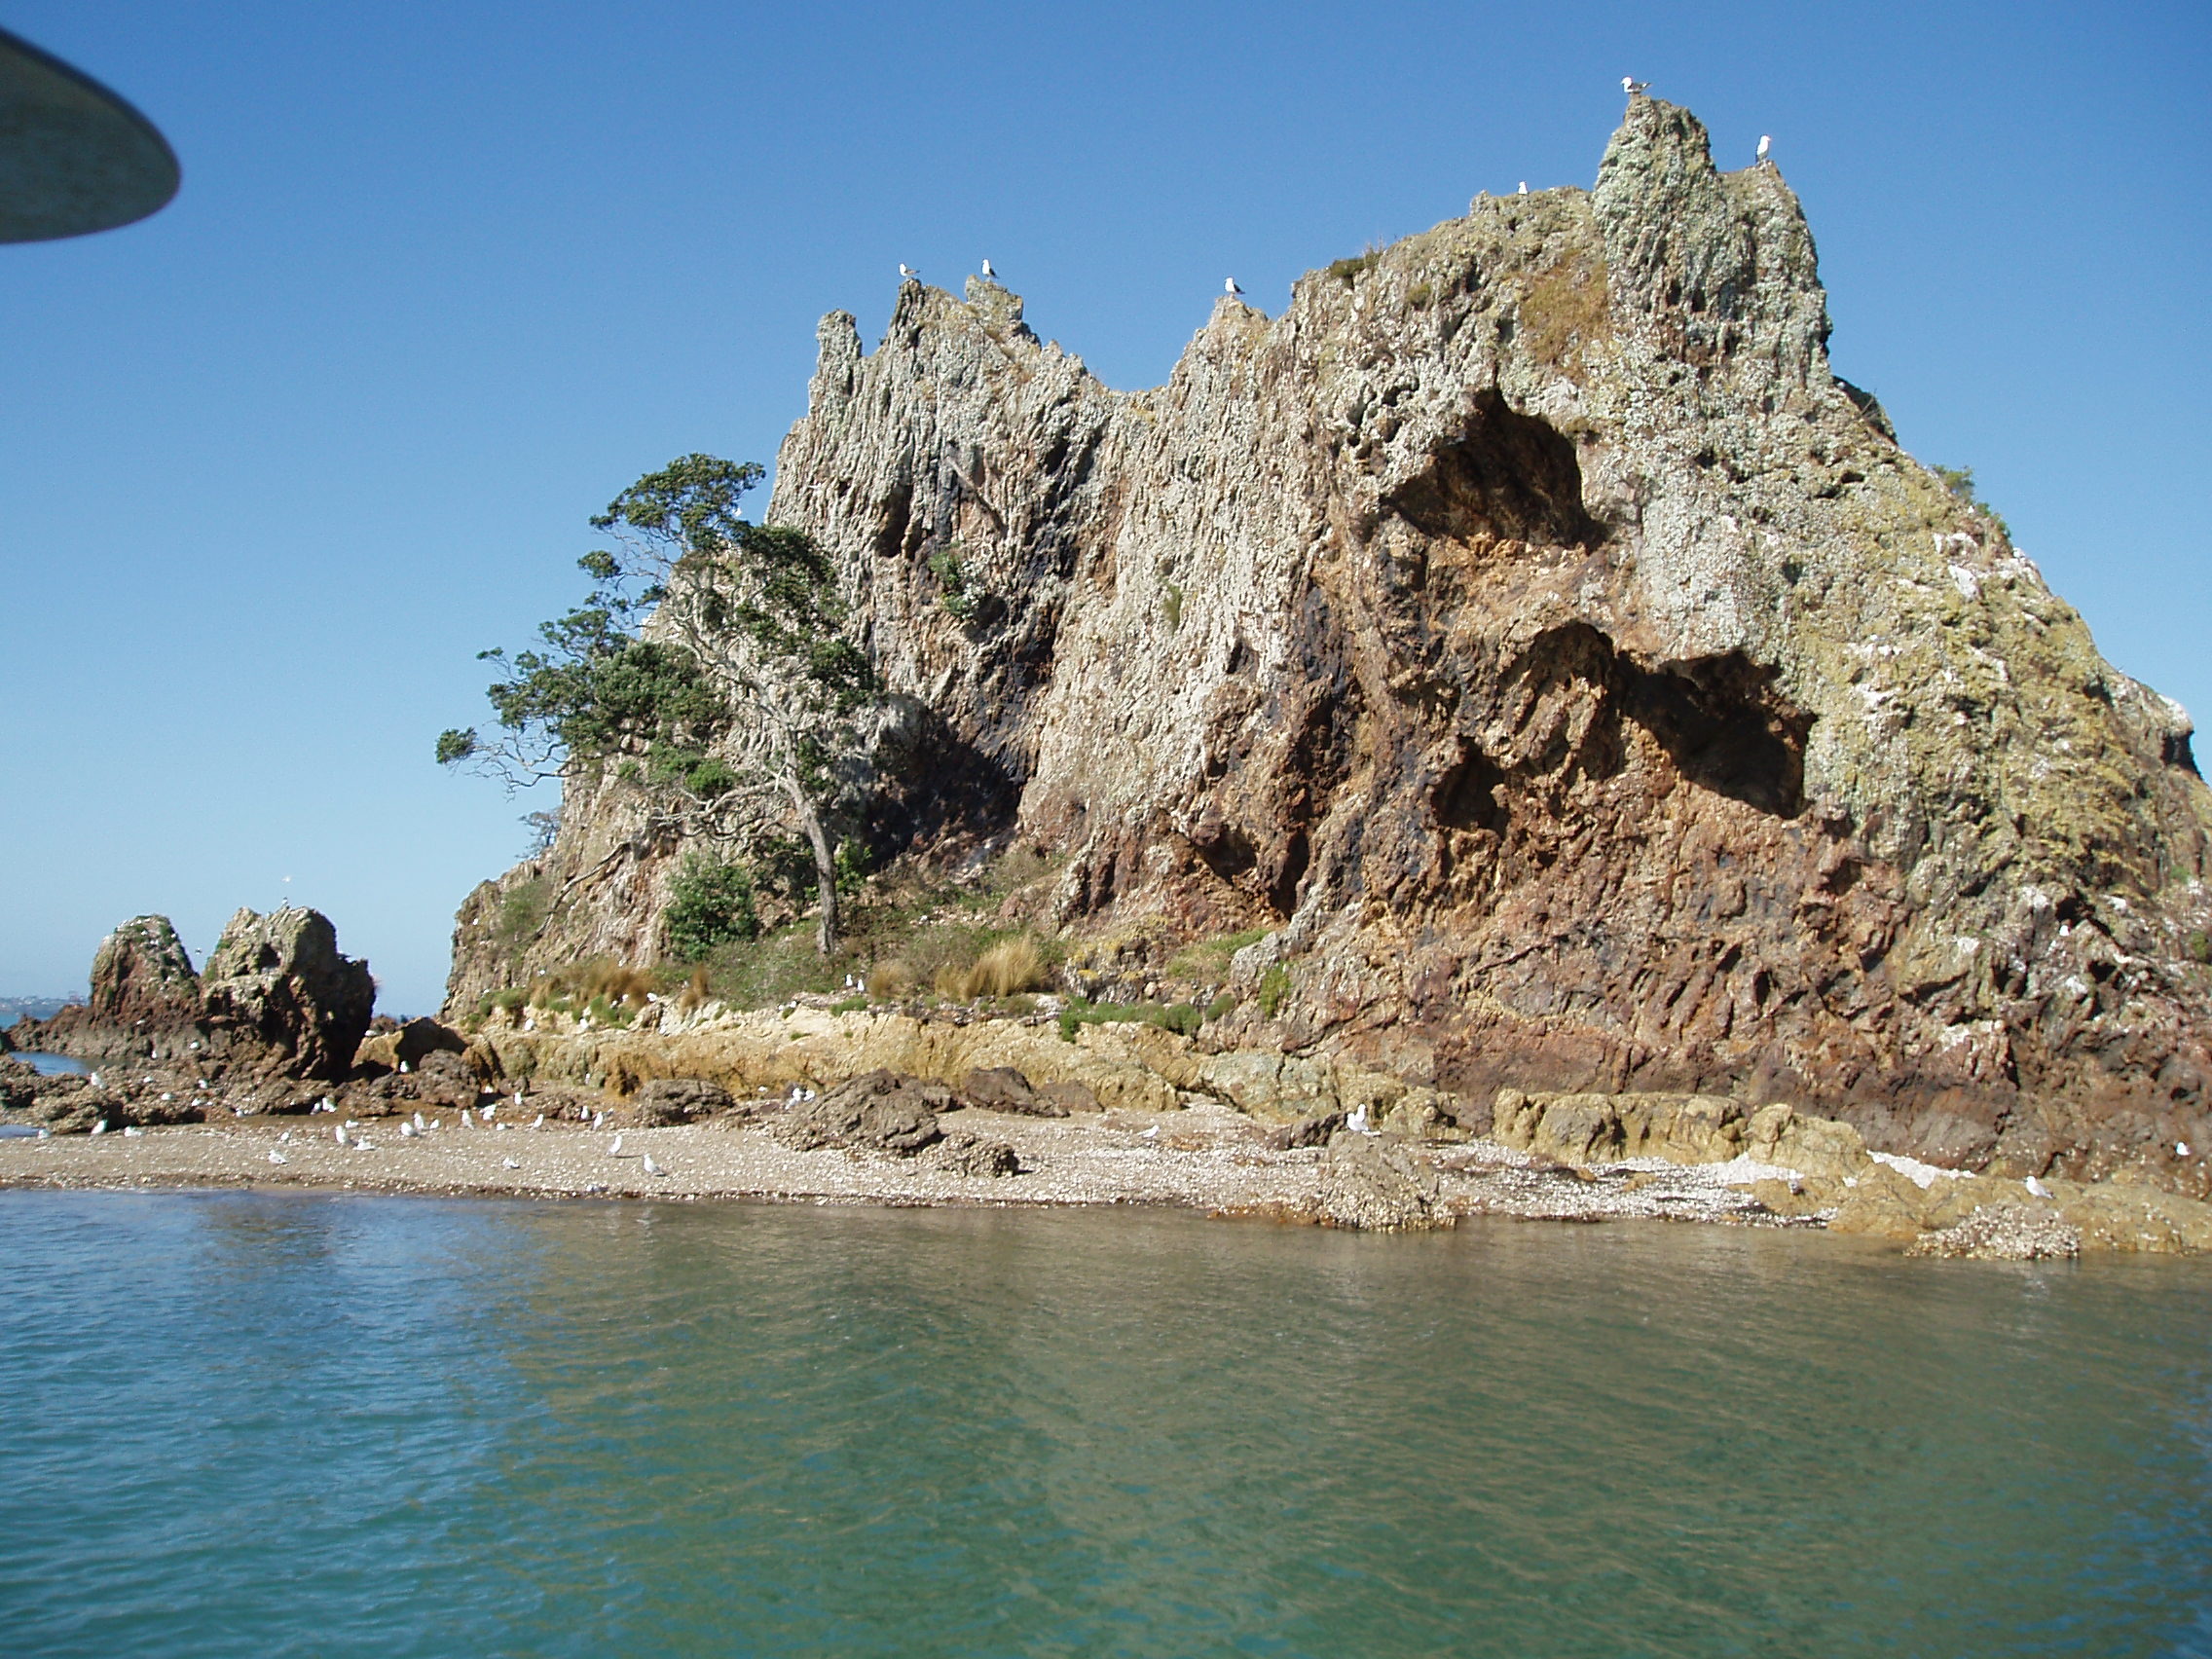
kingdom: Plantae
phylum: Tracheophyta
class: Liliopsida
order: Poales
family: Poaceae
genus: Bromus
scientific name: Bromus catharticus
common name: Rescuegrass
